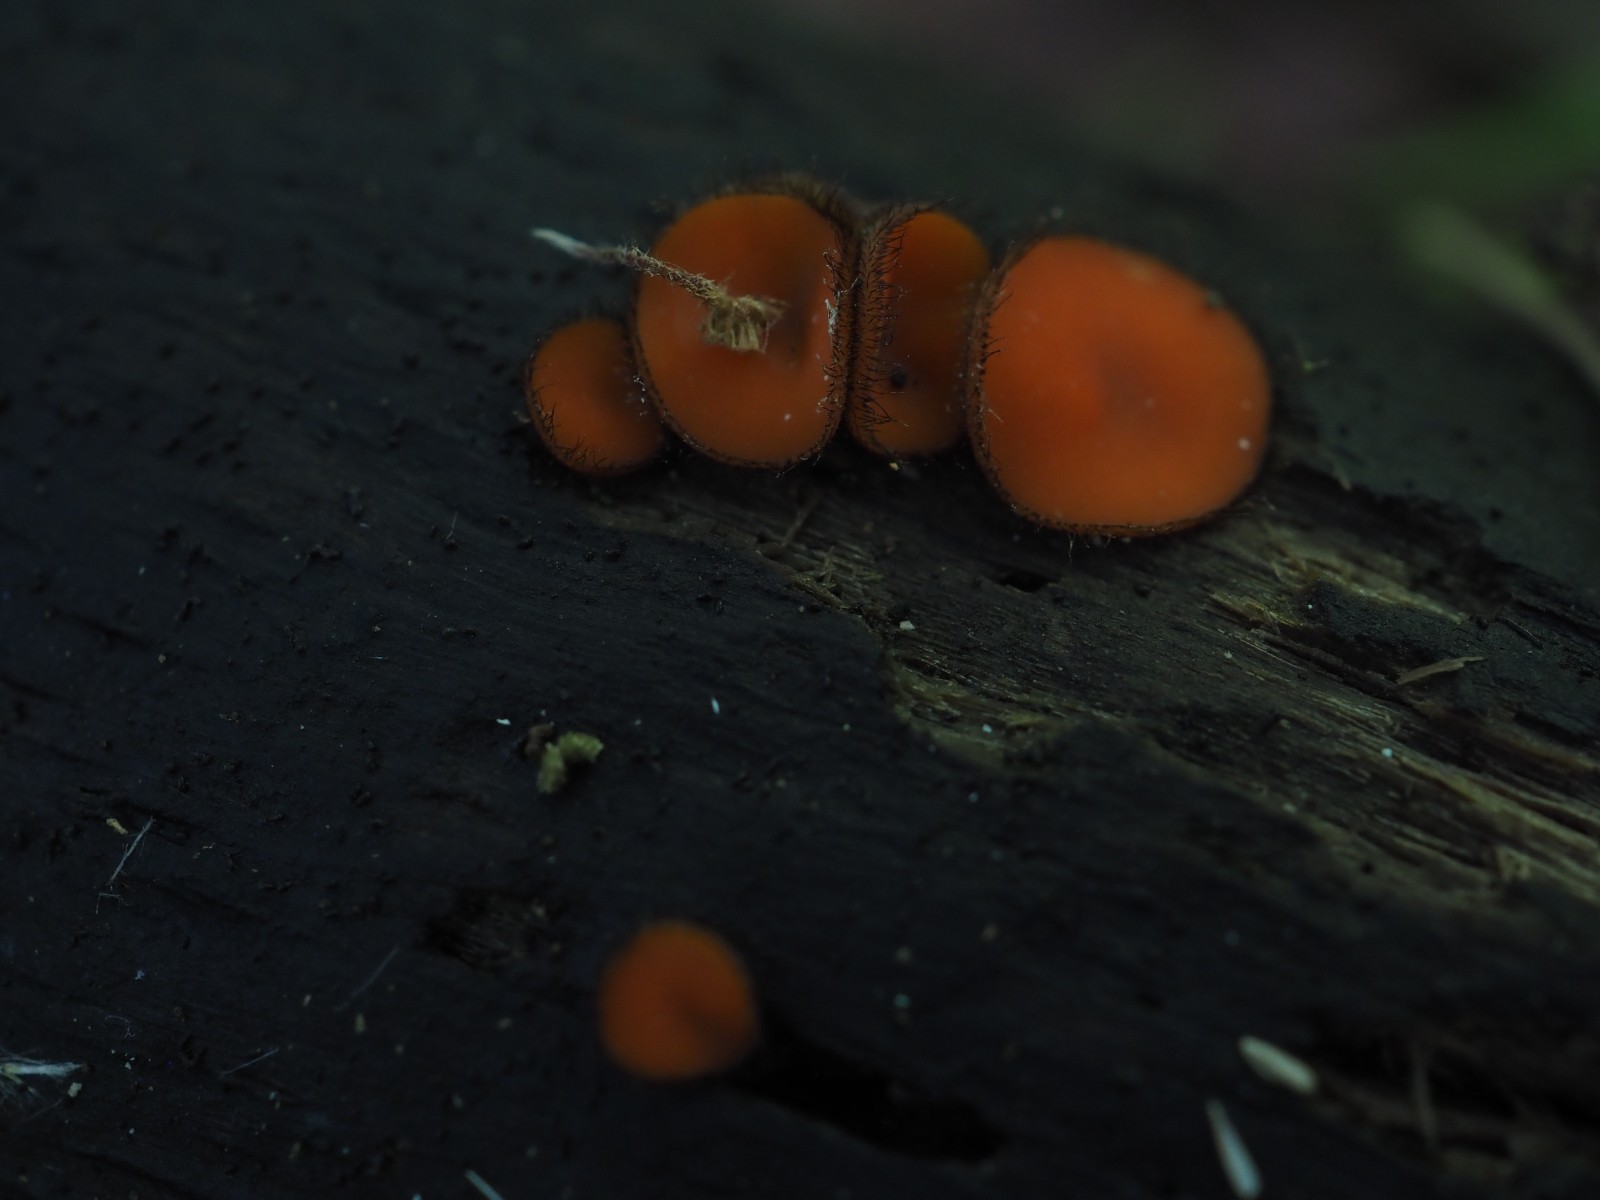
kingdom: Fungi
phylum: Ascomycota
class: Pezizomycetes
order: Pezizales
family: Pyronemataceae
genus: Scutellinia
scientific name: Scutellinia scutellata
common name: frynset skjoldbæger
